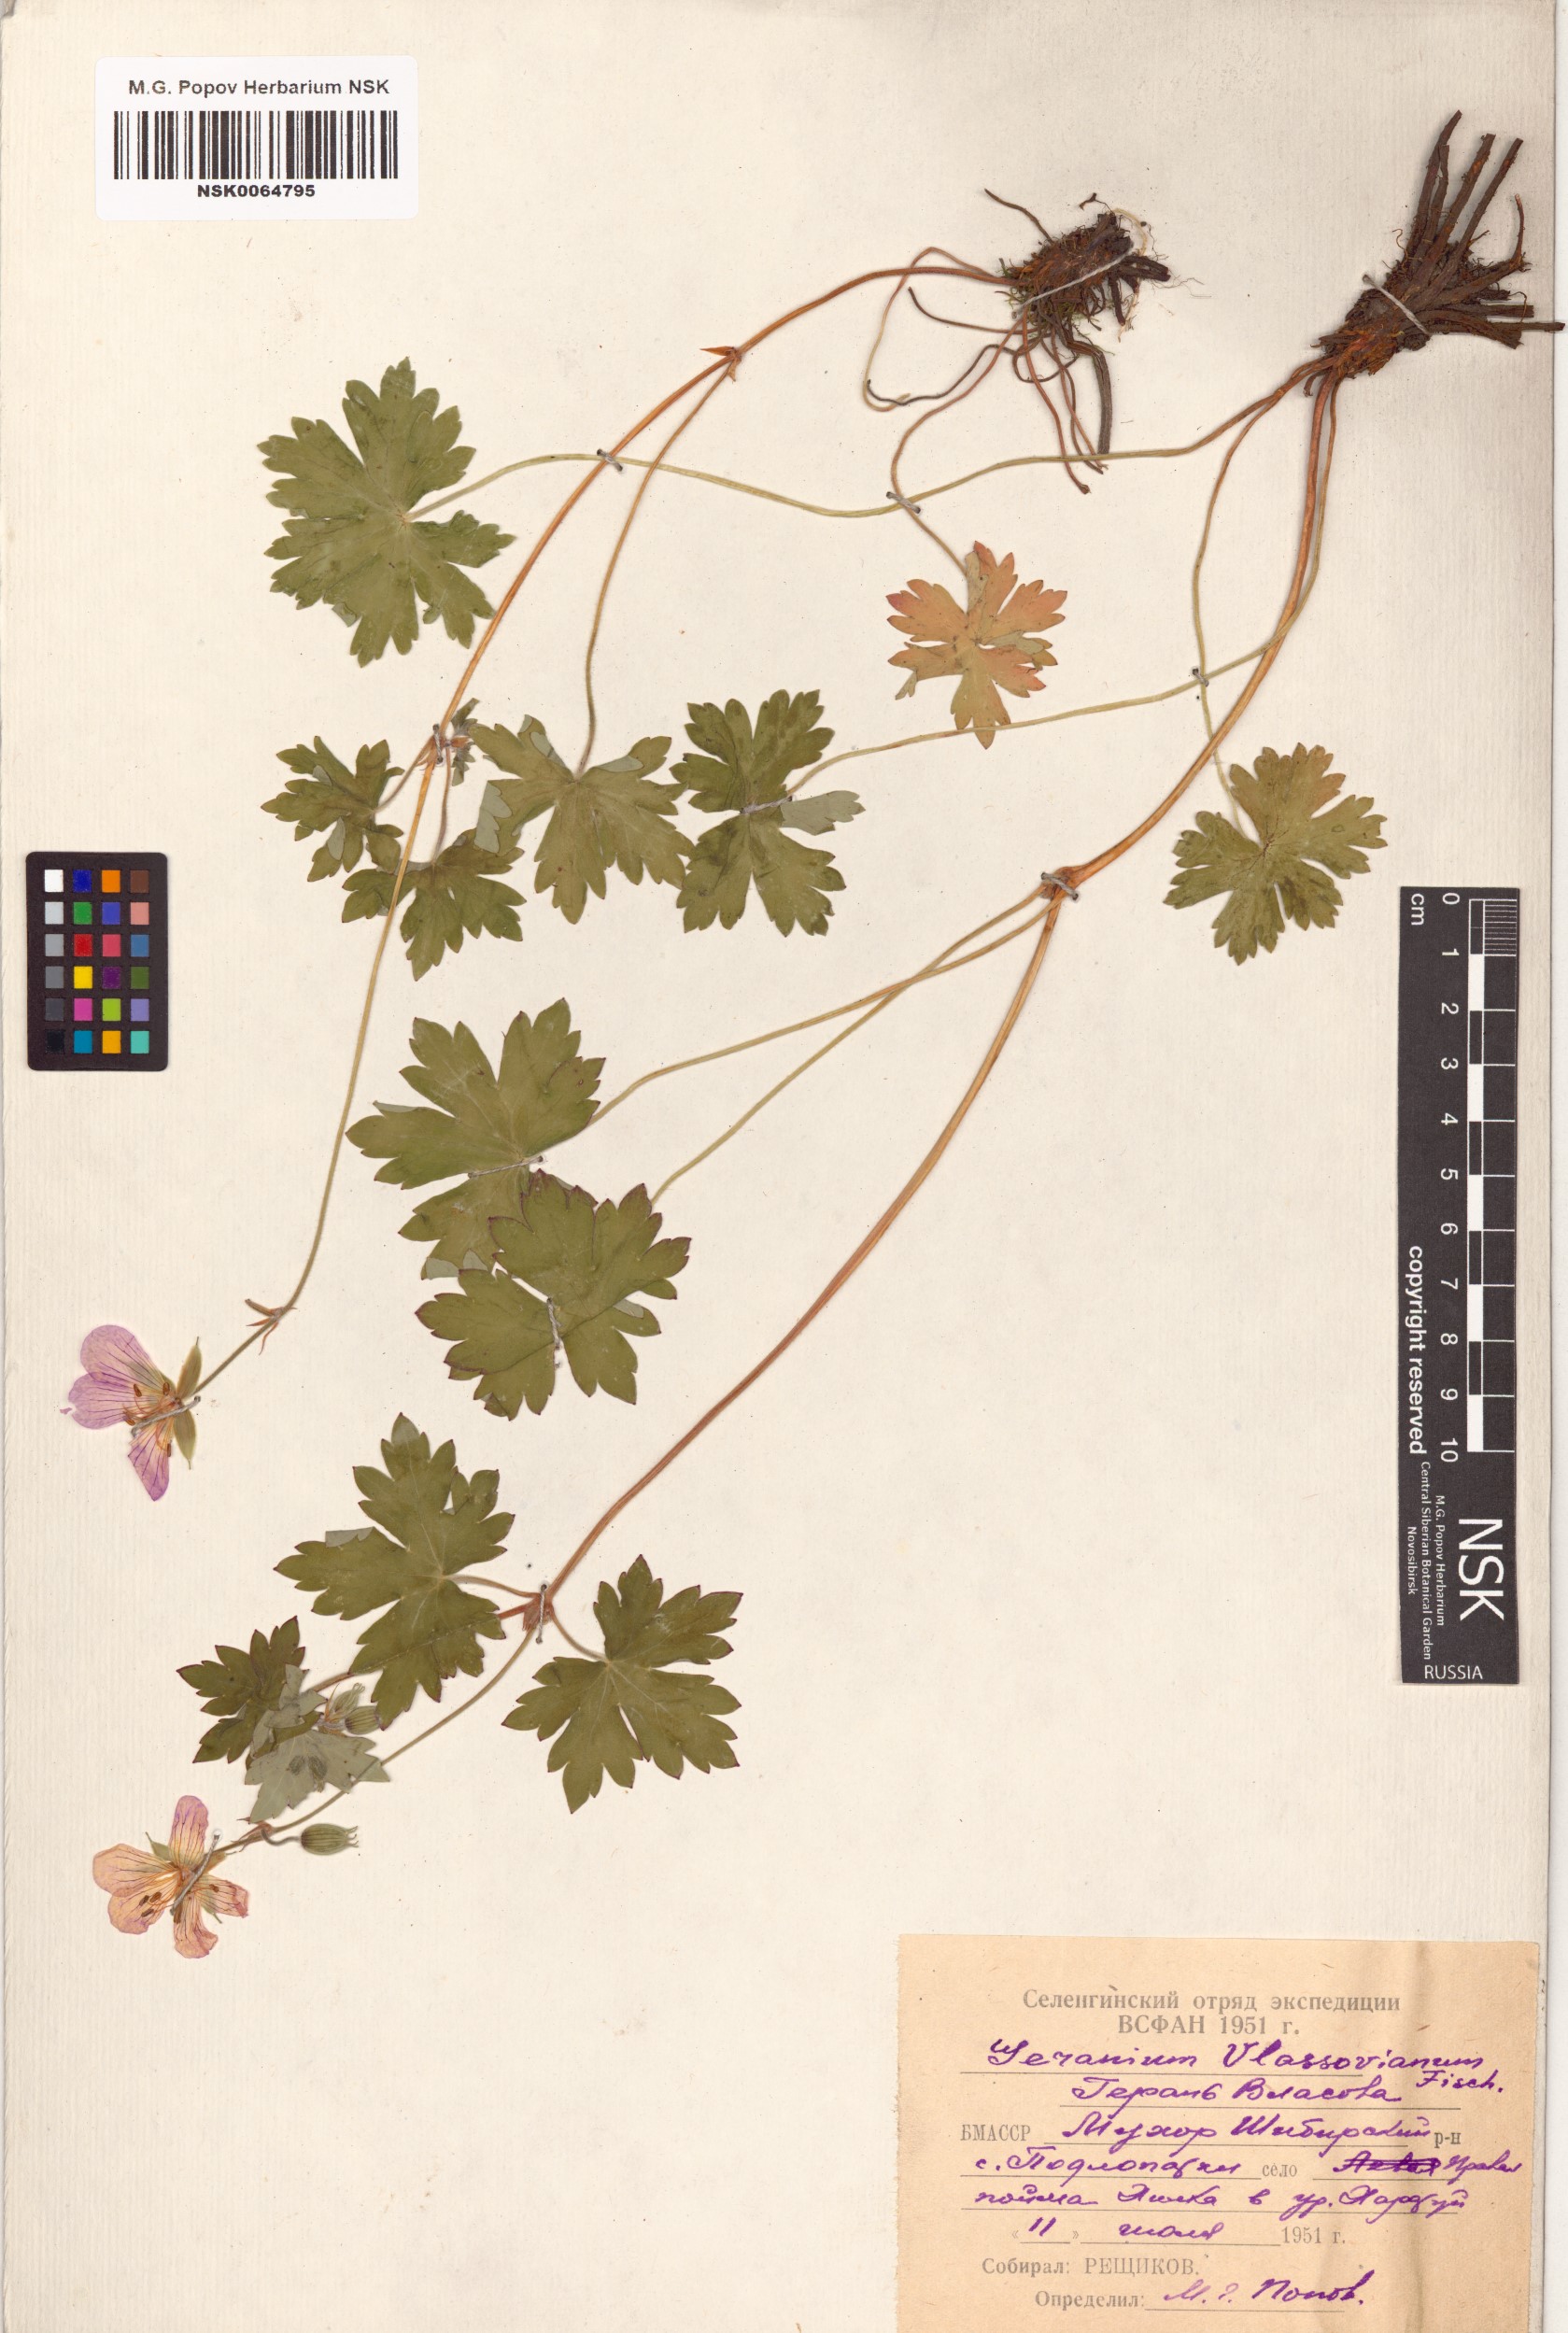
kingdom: Plantae
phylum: Tracheophyta
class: Magnoliopsida
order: Geraniales
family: Geraniaceae
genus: Geranium
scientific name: Geranium wlassovianum
